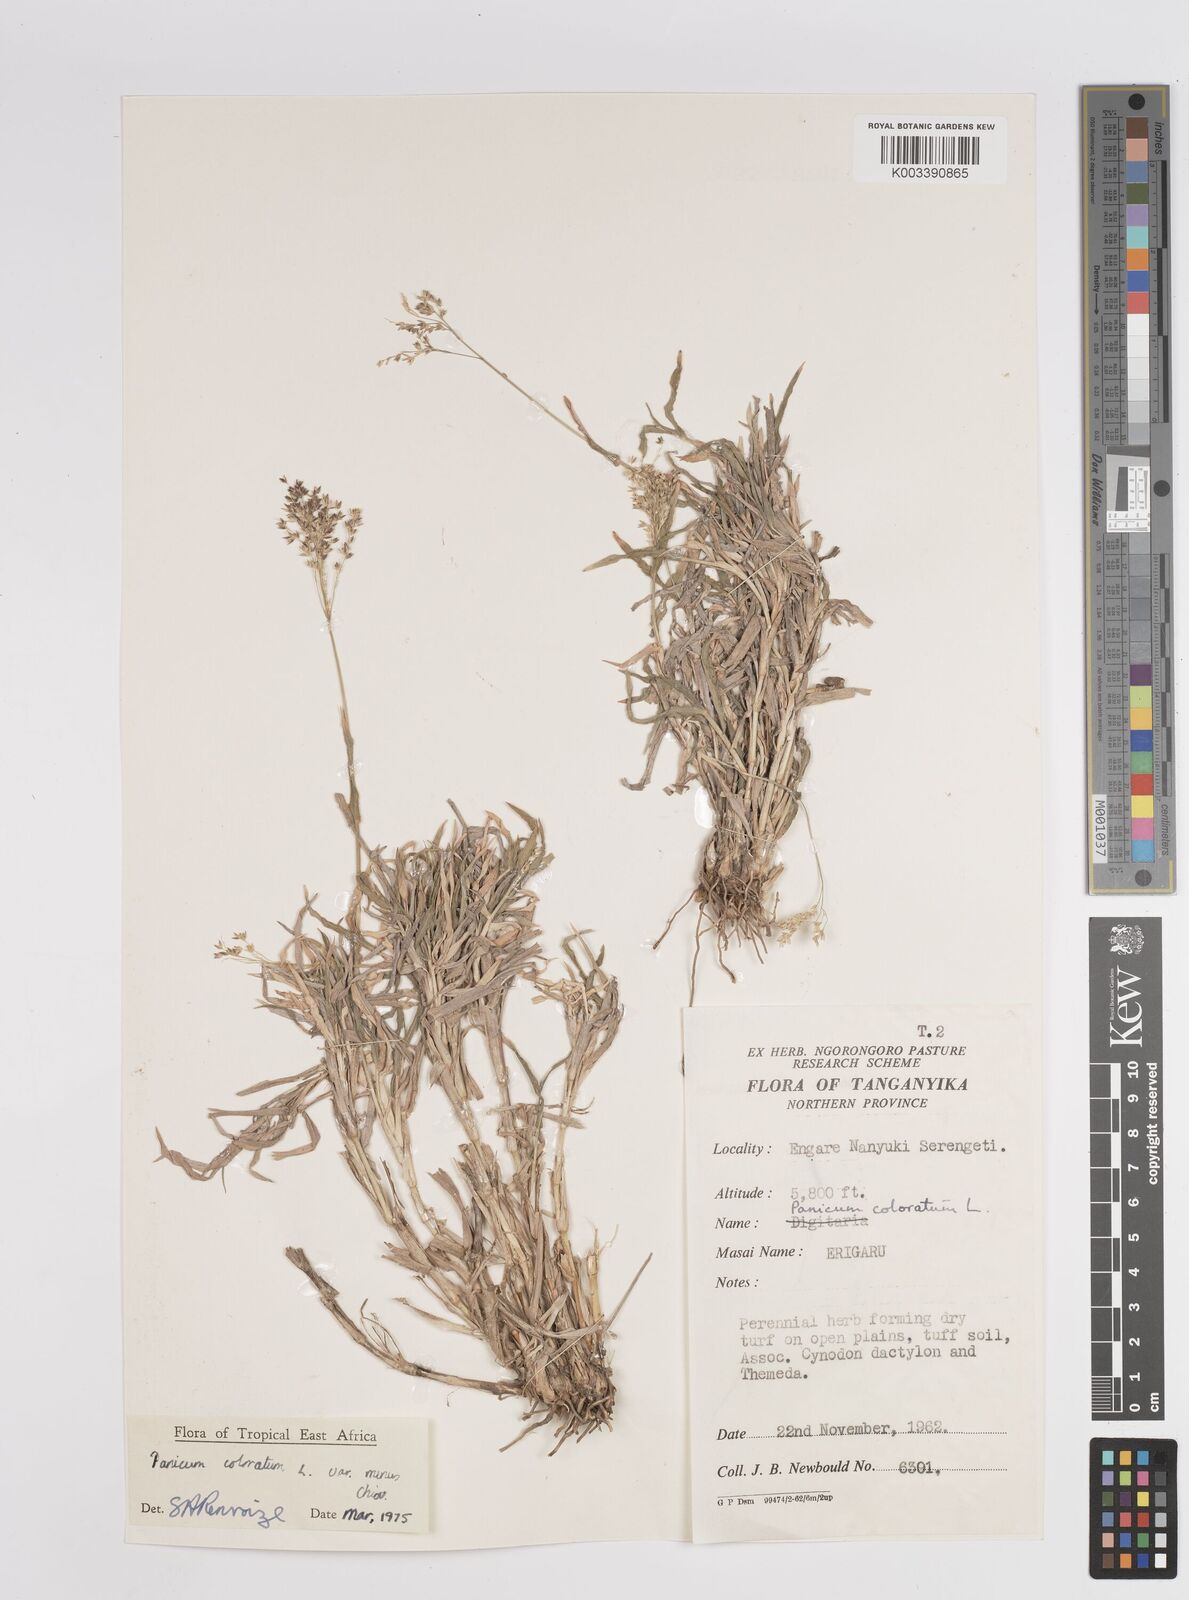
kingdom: Plantae
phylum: Tracheophyta
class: Liliopsida
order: Poales
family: Poaceae
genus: Panicum
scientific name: Panicum coloratum
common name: Kleingrass
